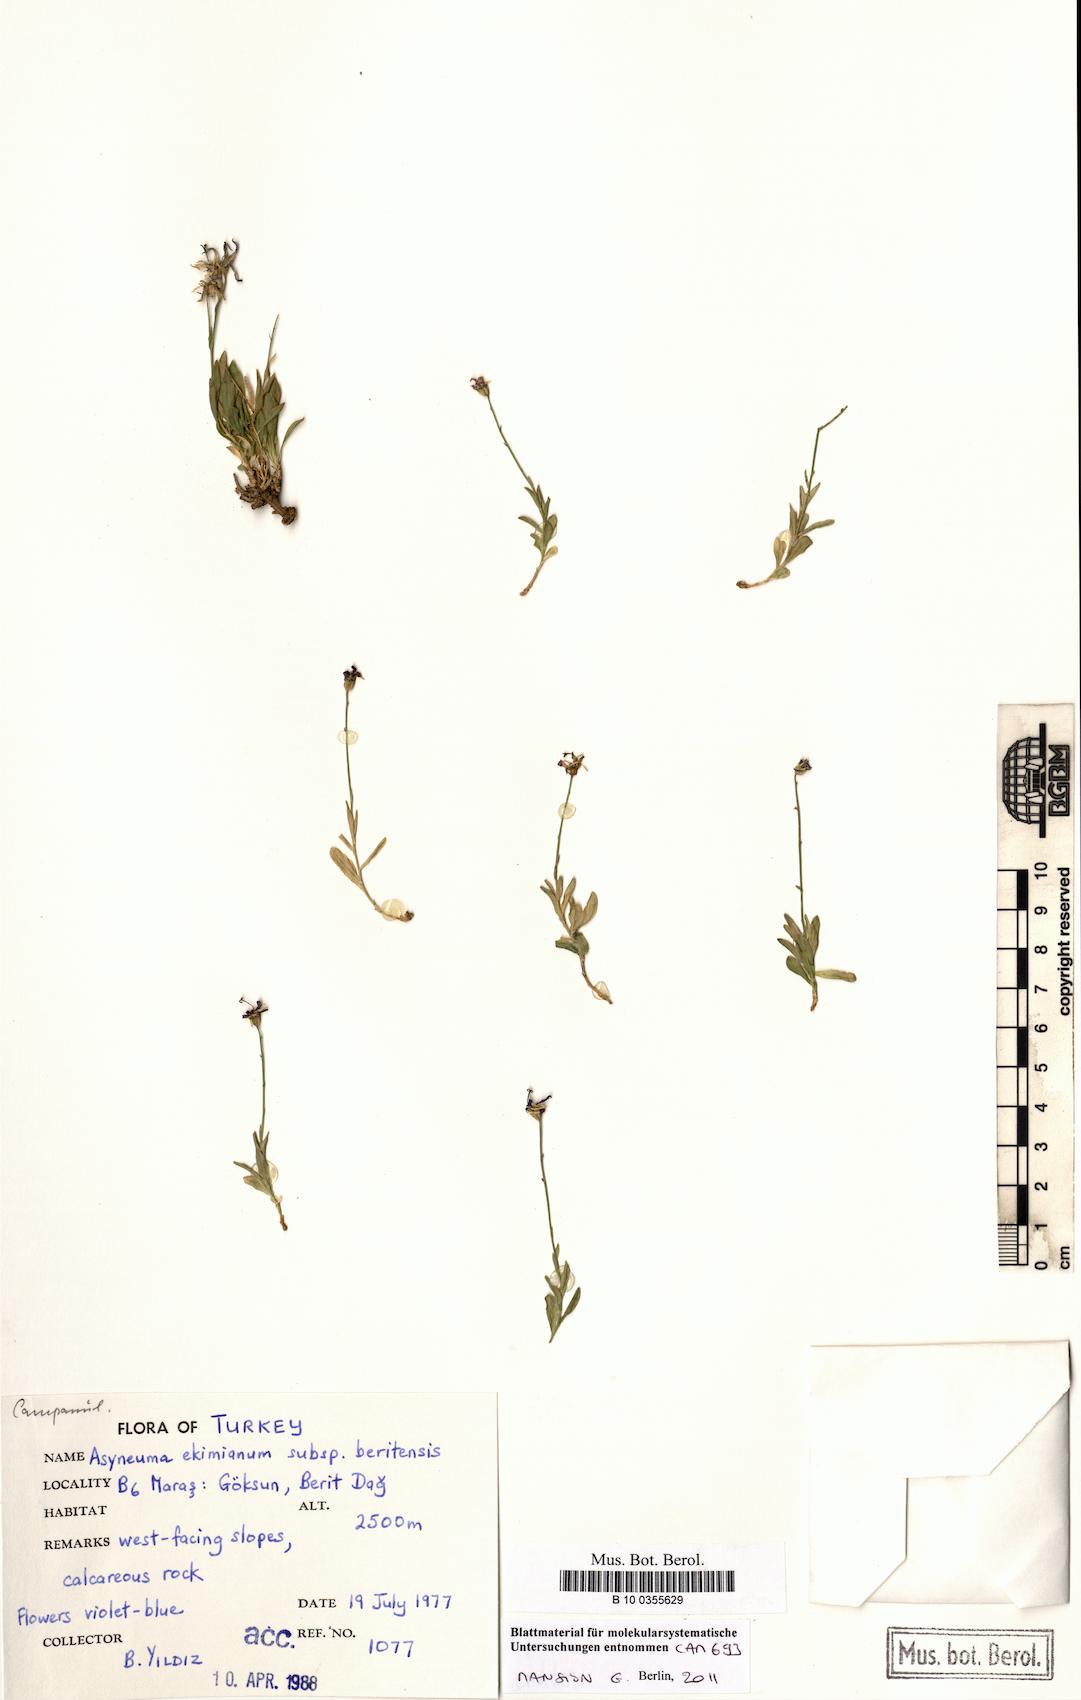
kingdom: Plantae
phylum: Tracheophyta
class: Magnoliopsida
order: Asterales
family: Campanulaceae
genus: Asyneuma
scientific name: Asyneuma ekimianum
